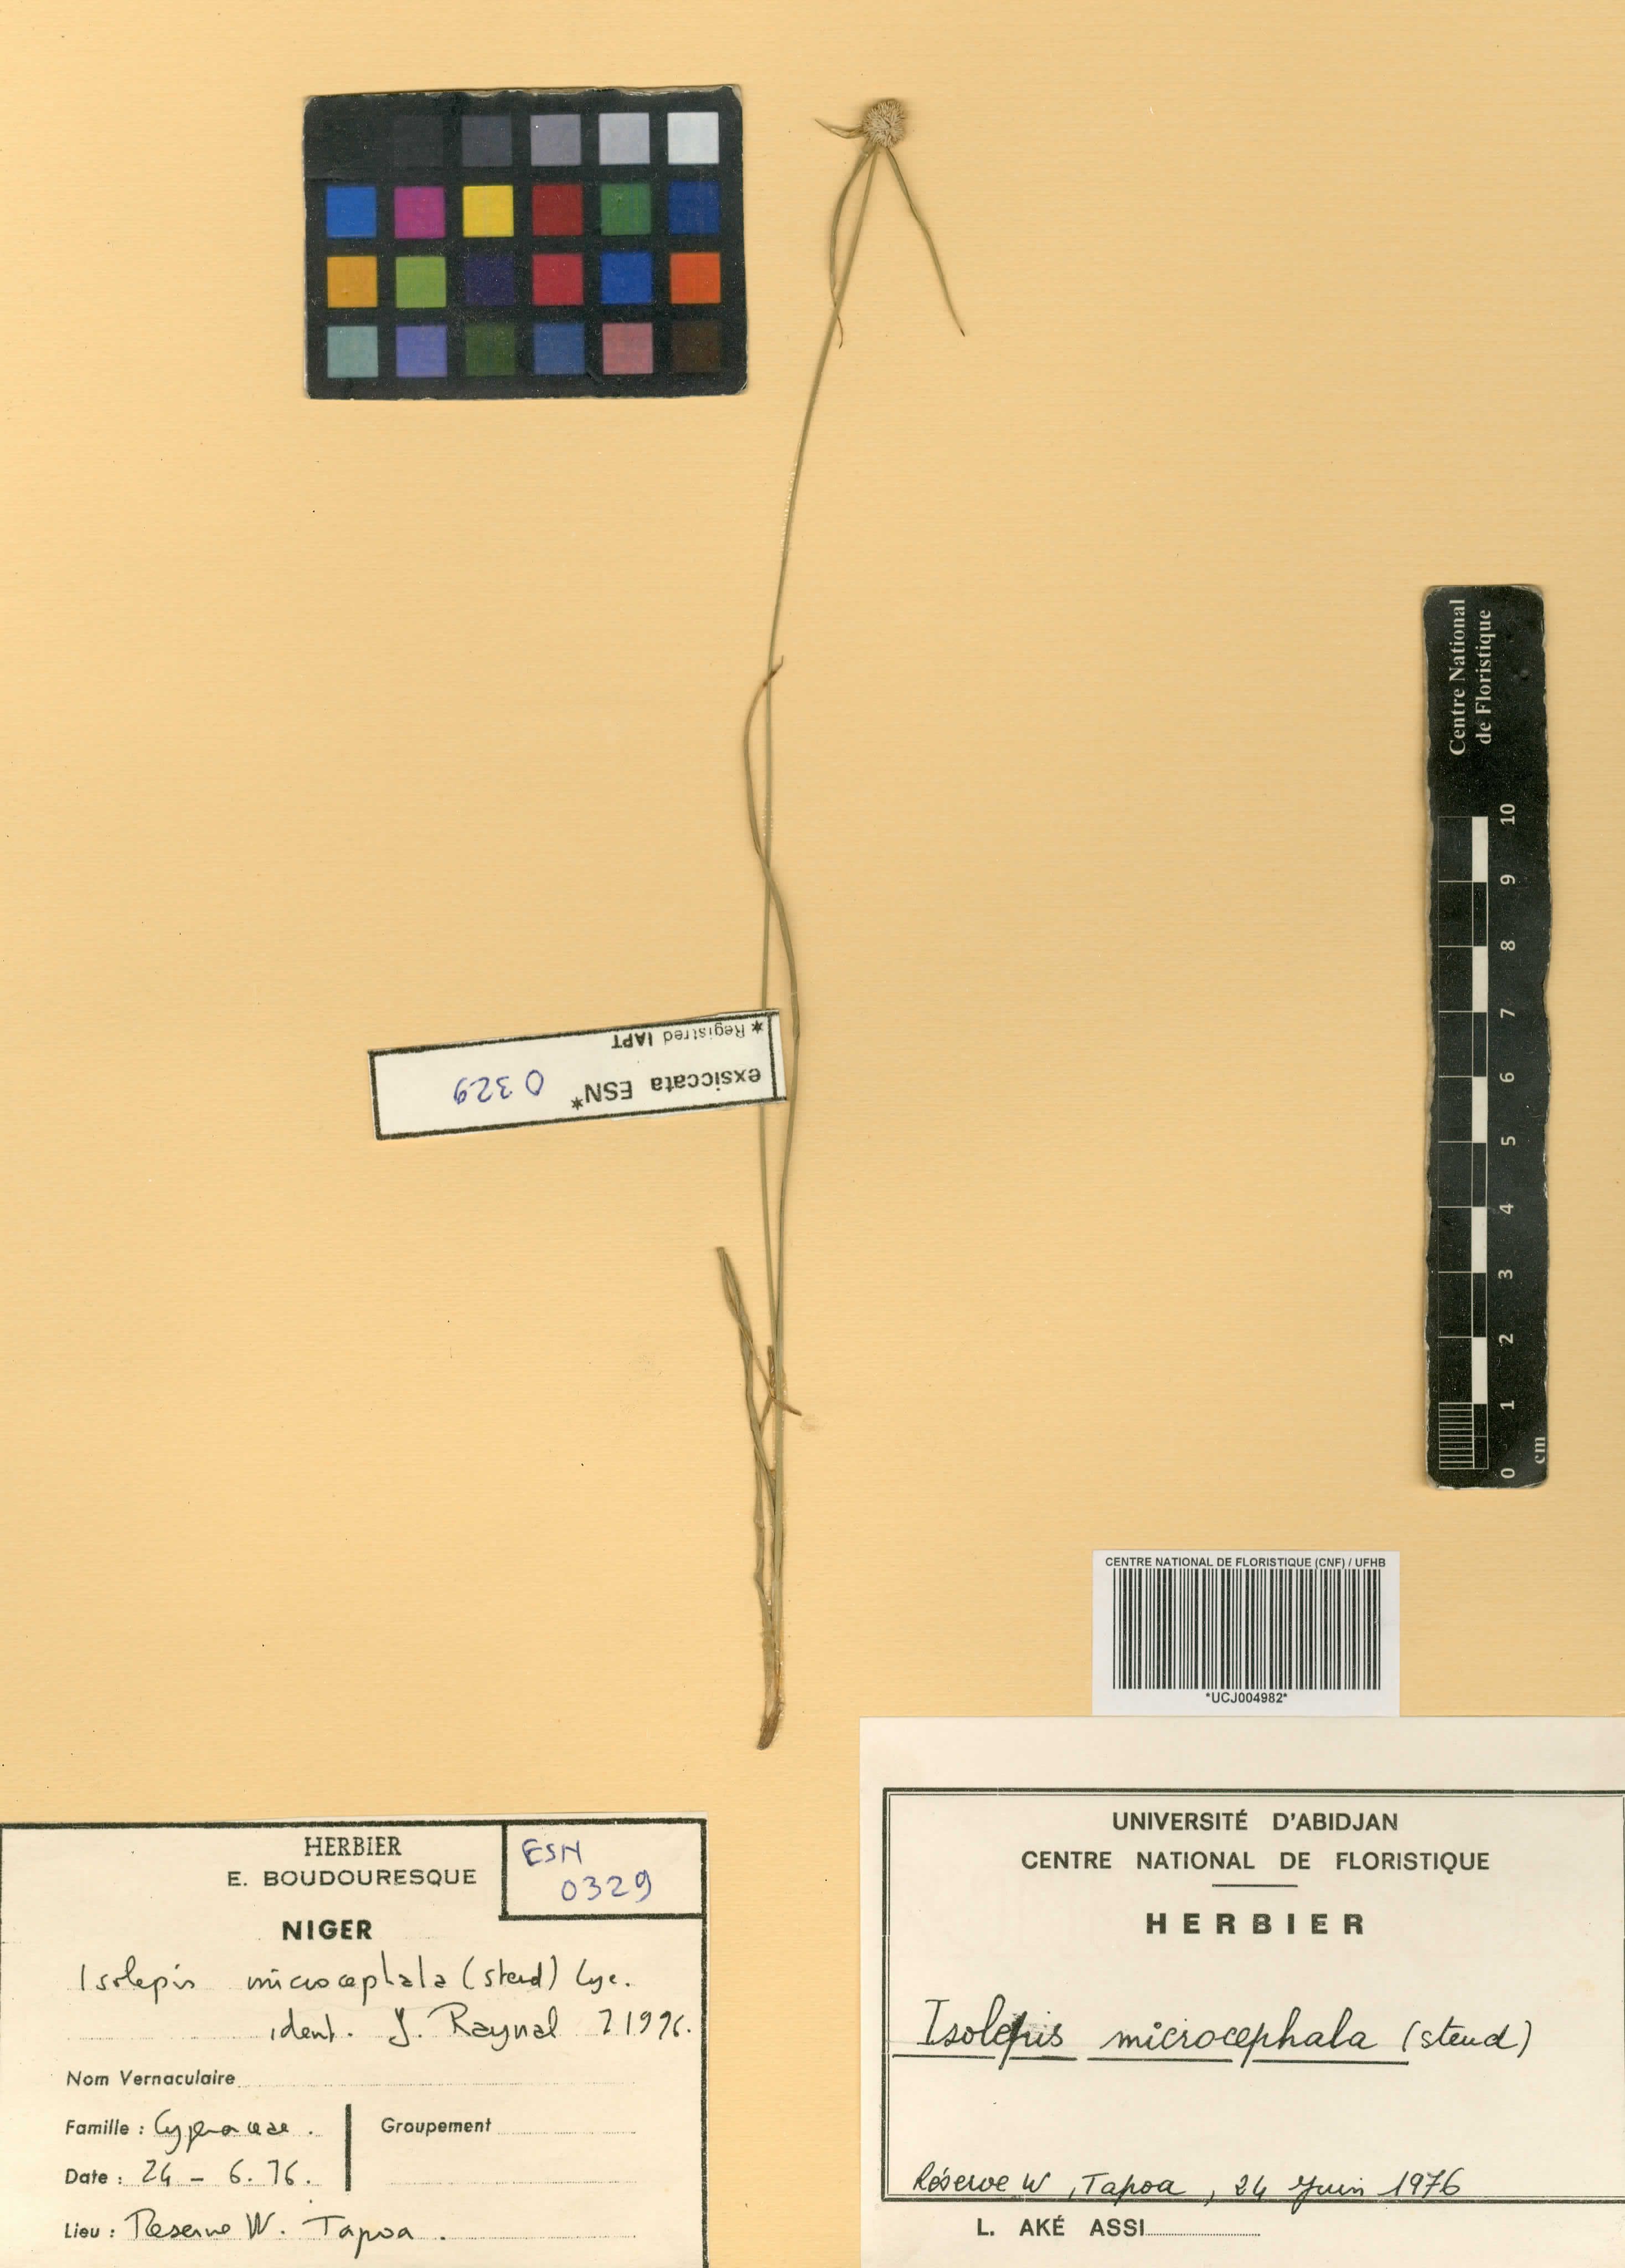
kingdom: Plantae
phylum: Tracheophyta
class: Liliopsida
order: Poales
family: Cyperaceae
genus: Cyperus
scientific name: Cyperus kyllingiella
